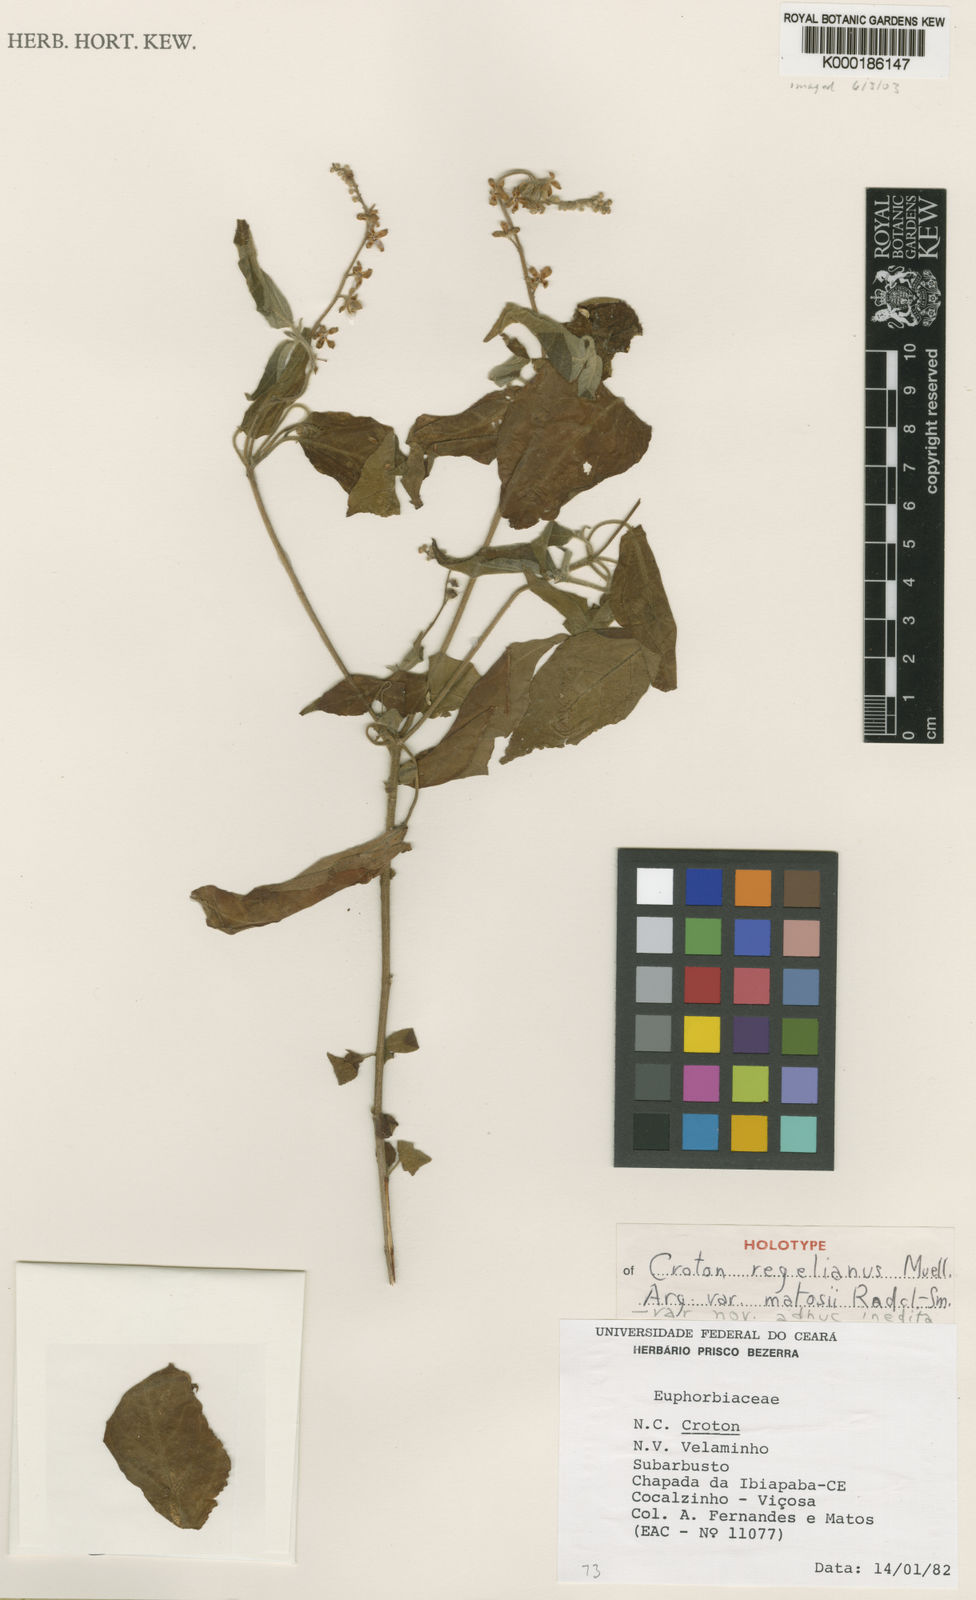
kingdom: Plantae
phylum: Tracheophyta
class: Magnoliopsida
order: Malpighiales
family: Euphorbiaceae
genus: Croton
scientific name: Croton pulegiodorus
